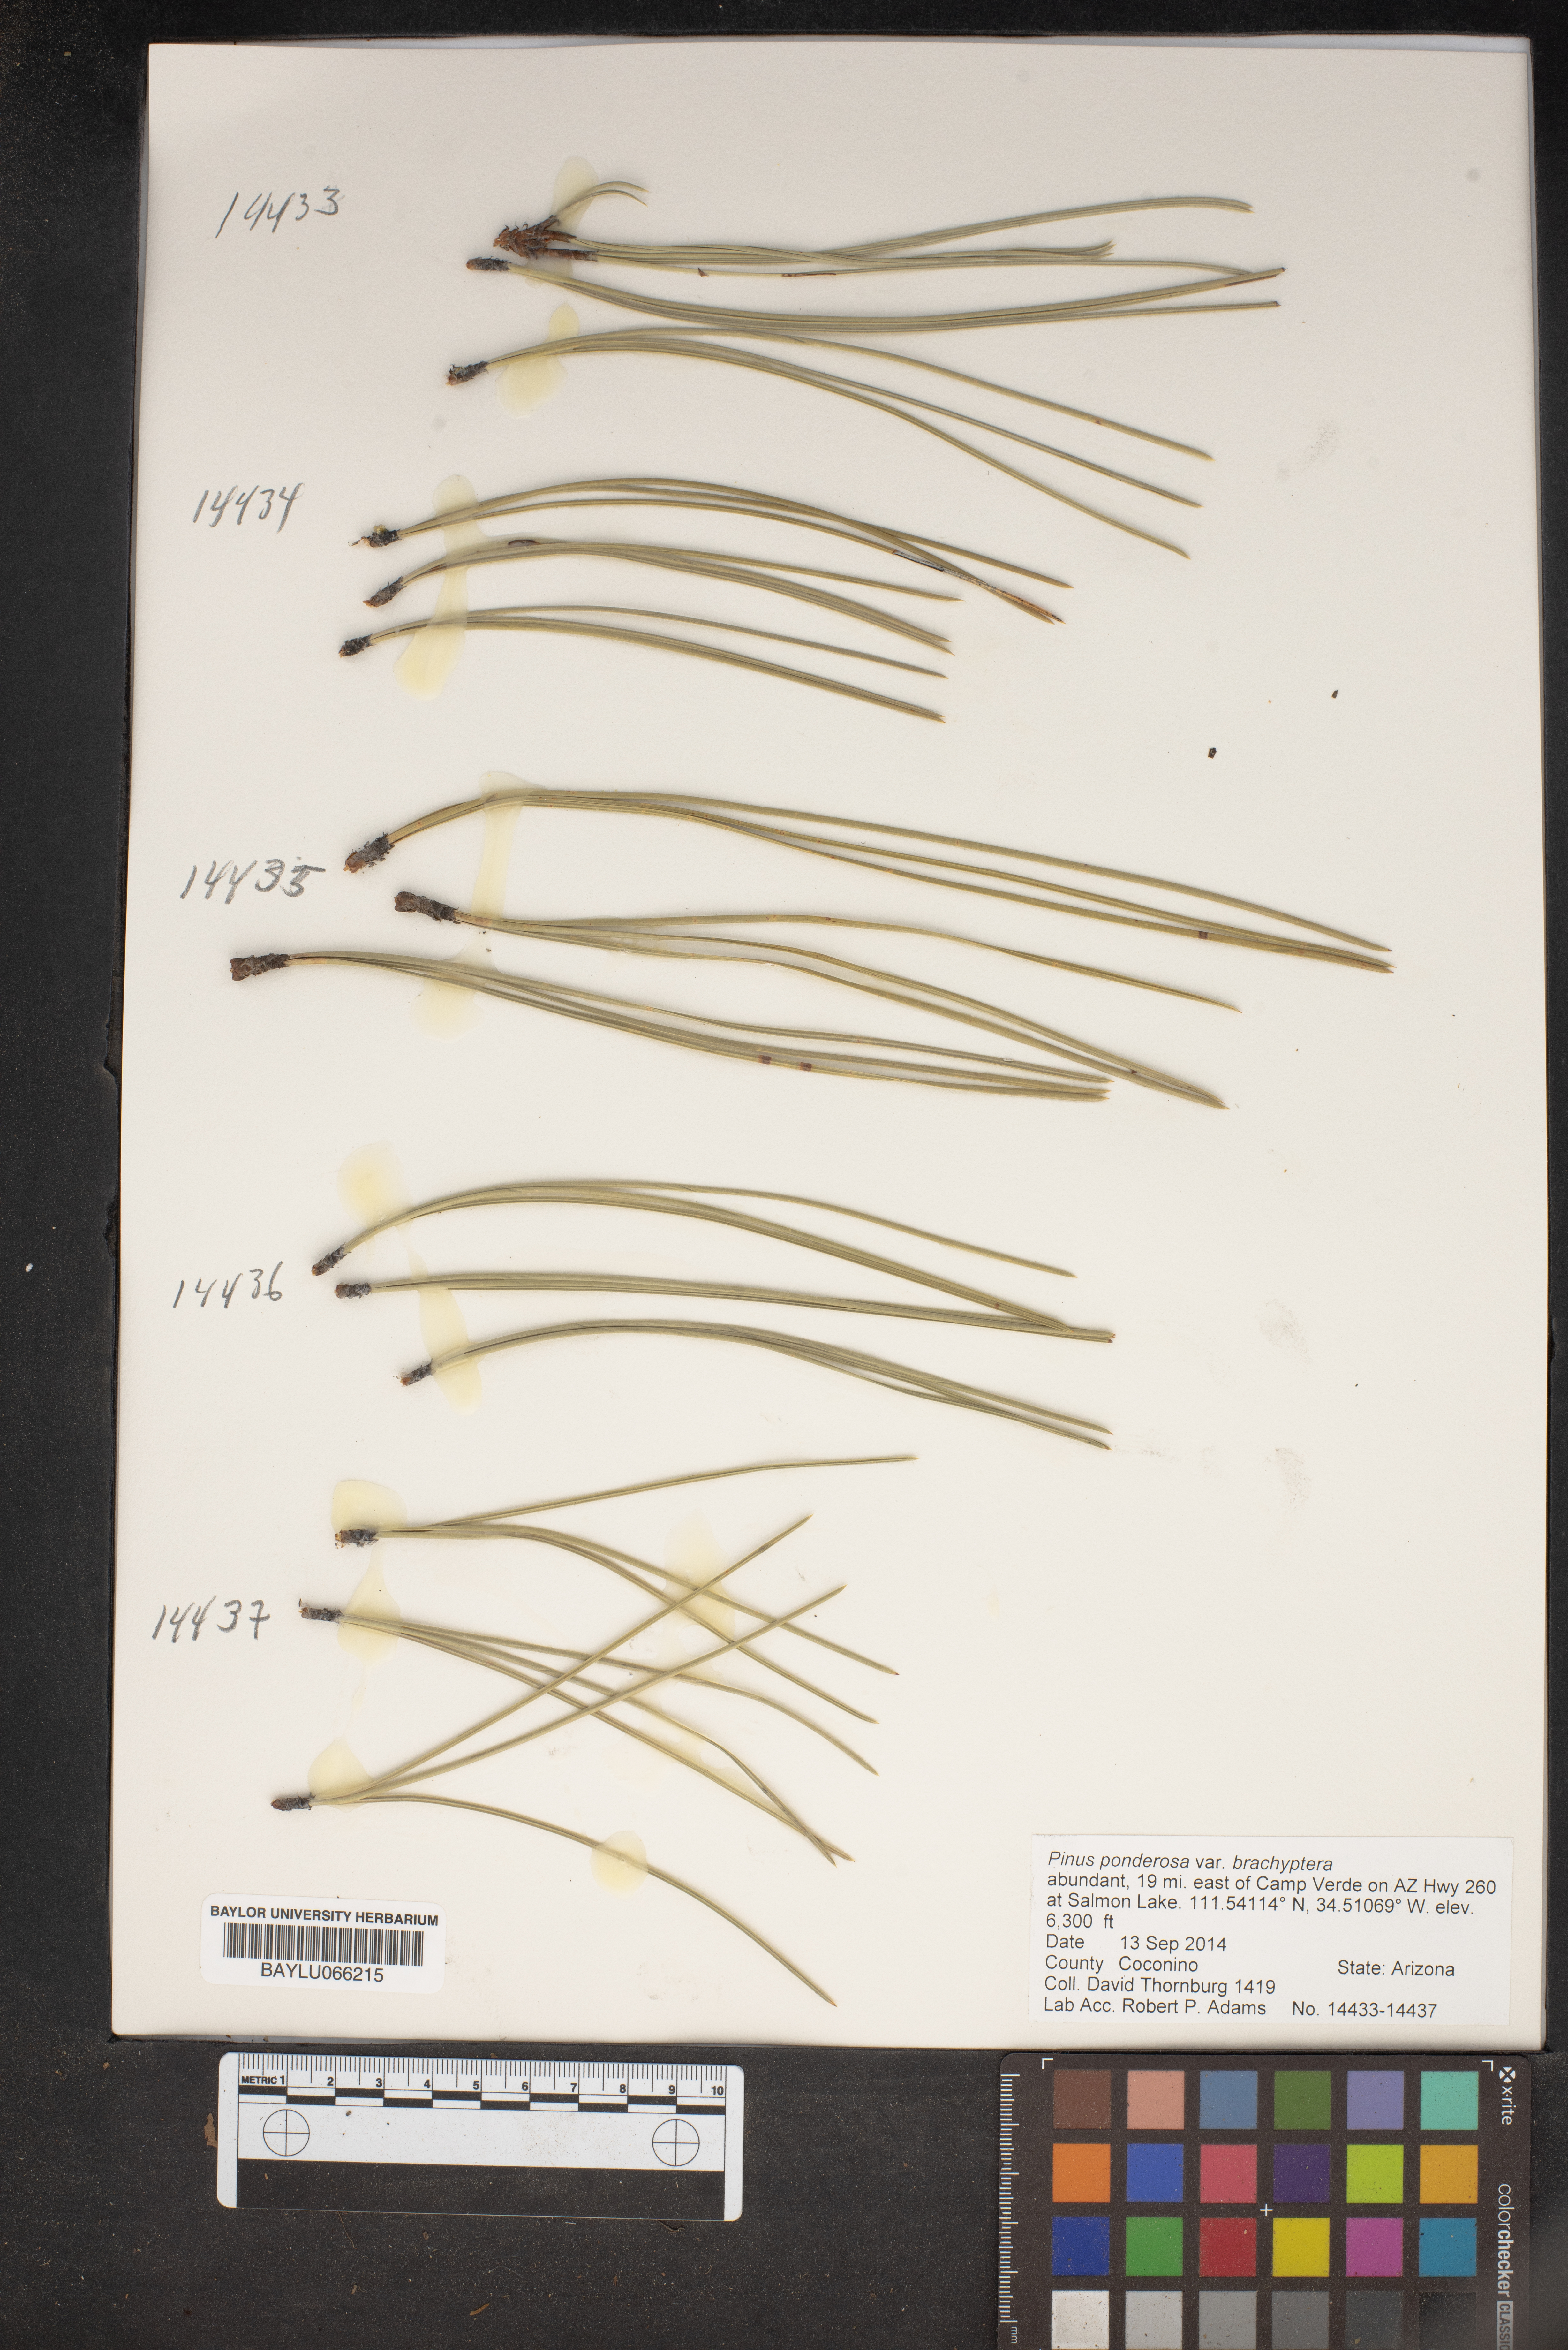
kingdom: Plantae
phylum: Tracheophyta
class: Pinopsida
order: Pinales
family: Pinaceae
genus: Pinus
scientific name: Pinus ponderosa
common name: Western yellow-pine
